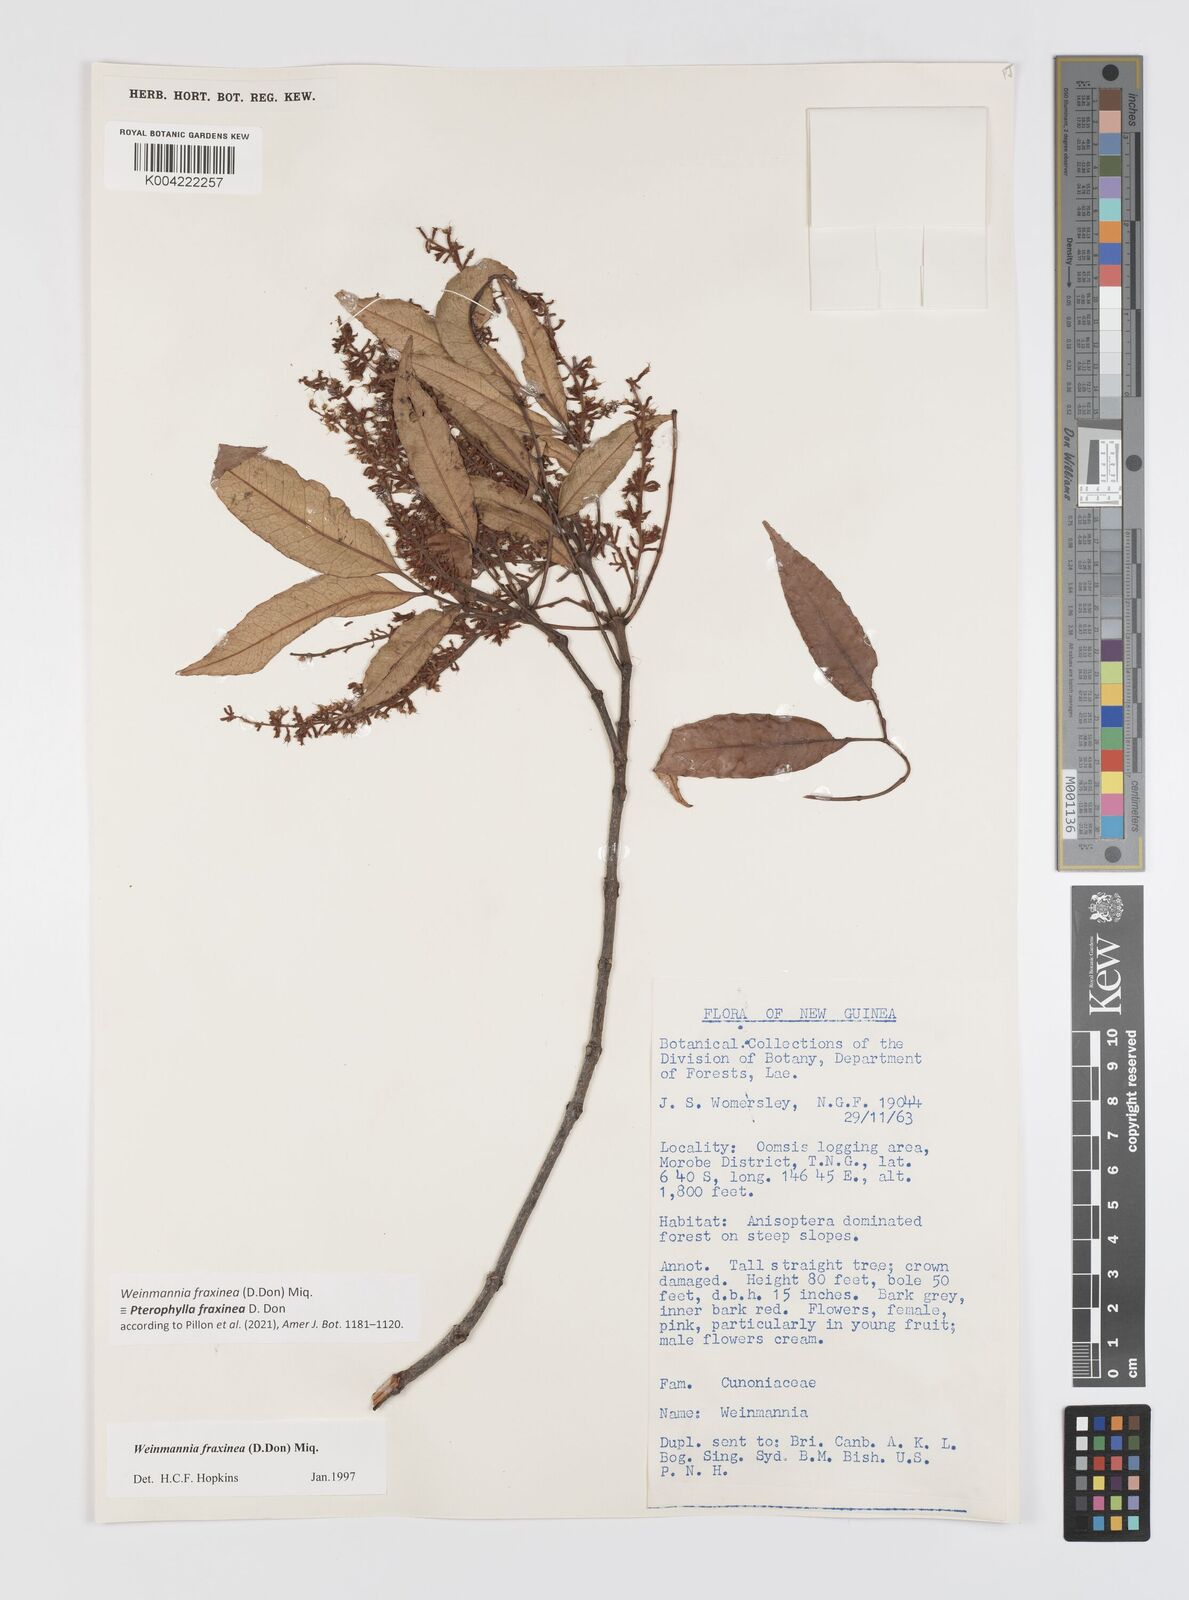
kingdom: Plantae
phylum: Tracheophyta
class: Magnoliopsida
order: Oxalidales
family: Cunoniaceae
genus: Pterophylla
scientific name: Pterophylla fraxinea
